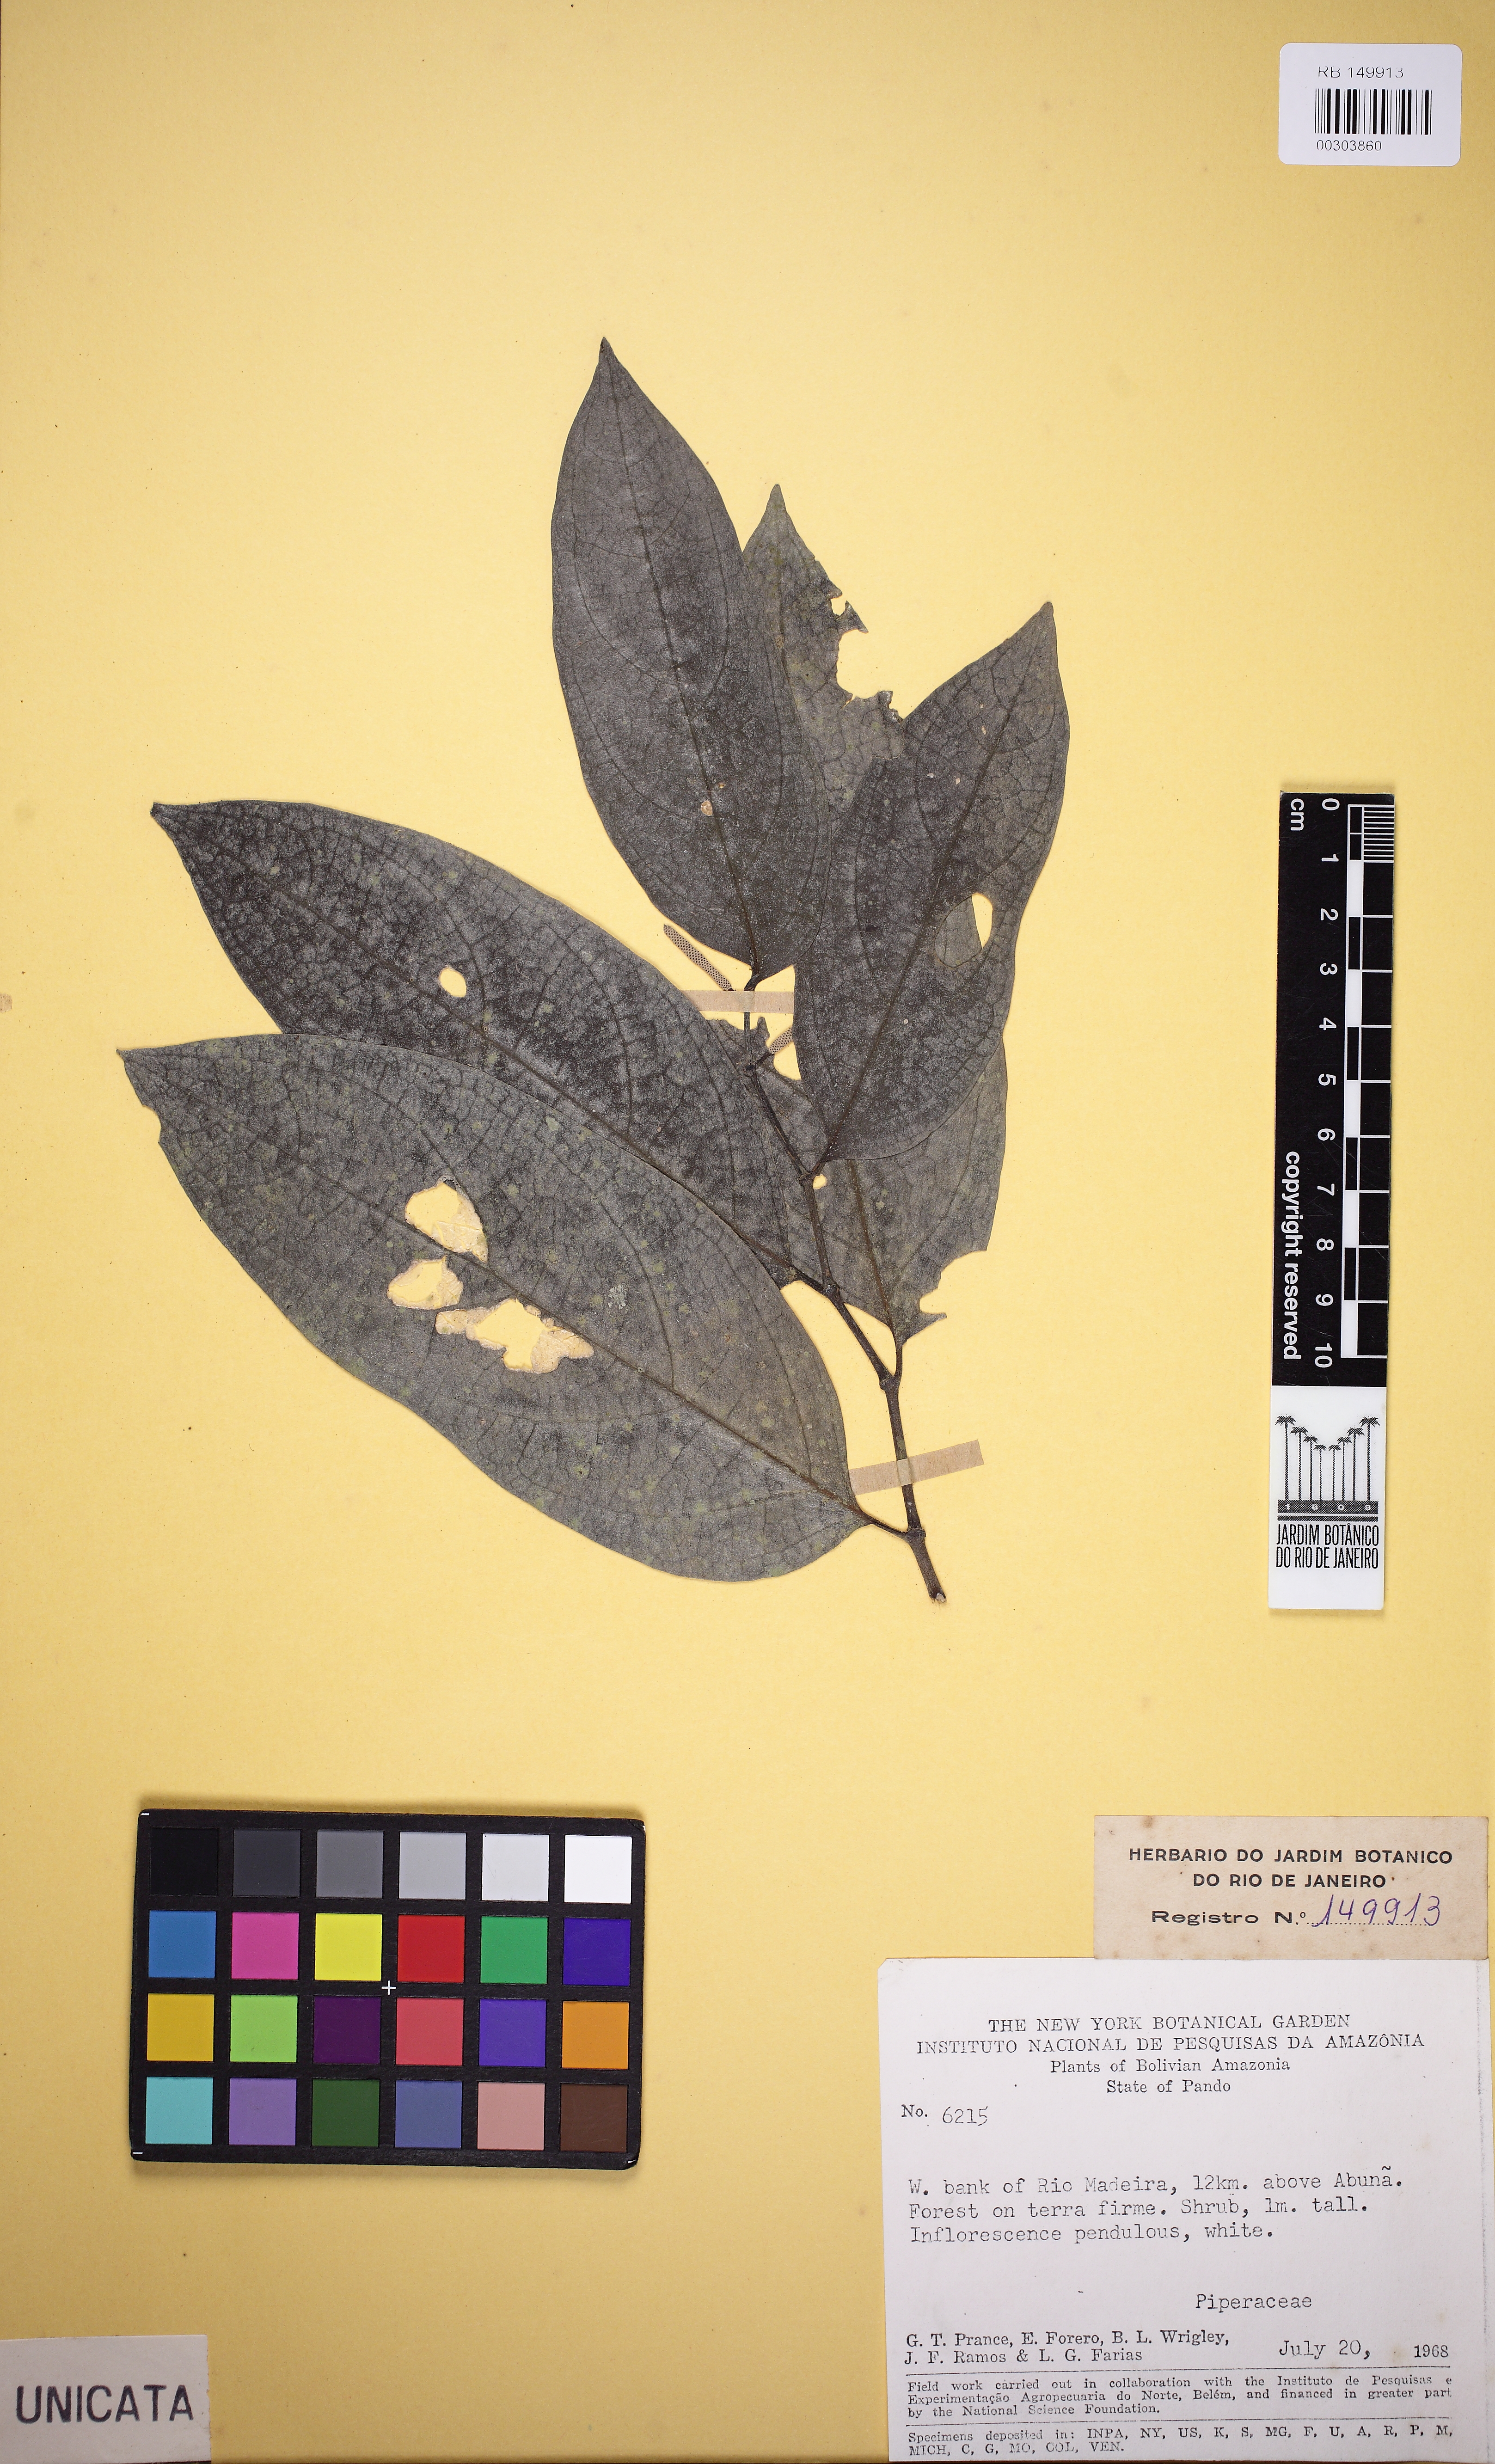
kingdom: Plantae
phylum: Tracheophyta
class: Magnoliopsida
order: Piperales
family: Piperaceae
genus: Piper
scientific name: Piper divaricatum
